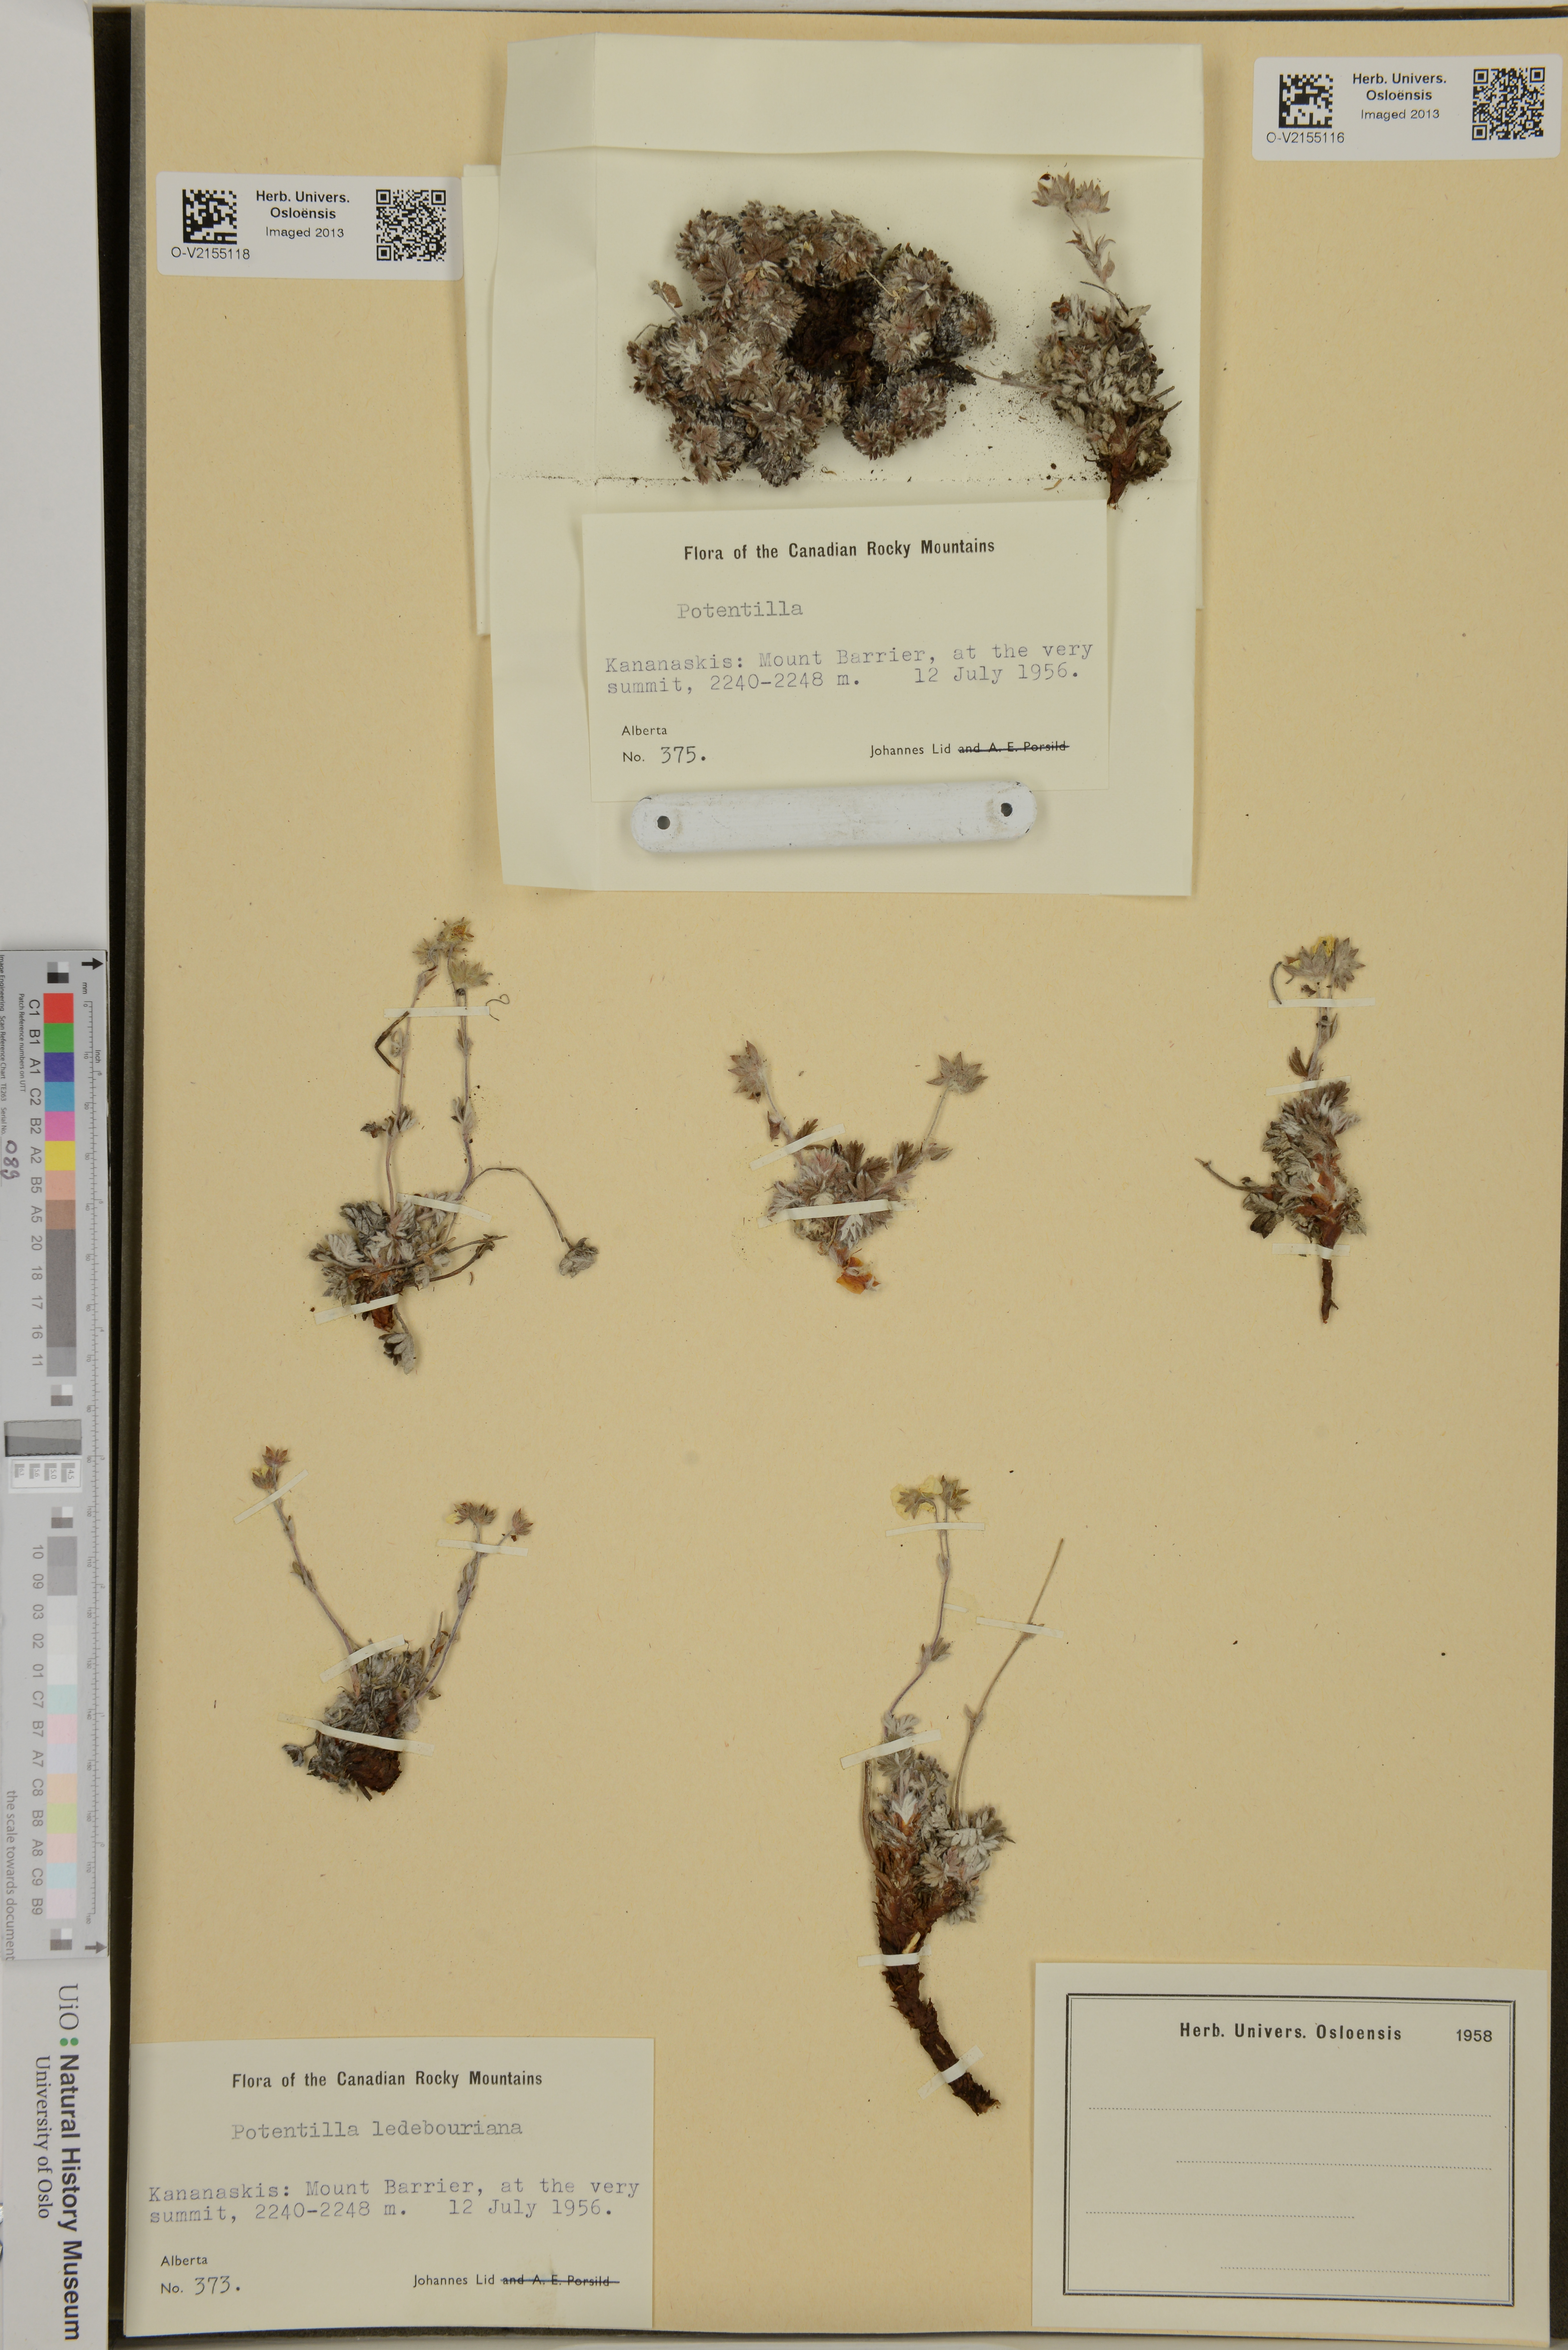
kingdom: Plantae
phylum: Tracheophyta
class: Magnoliopsida
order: Rosales
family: Rosaceae
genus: Potentilla
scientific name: Potentilla uniflora
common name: One-flowered cinquefoil
